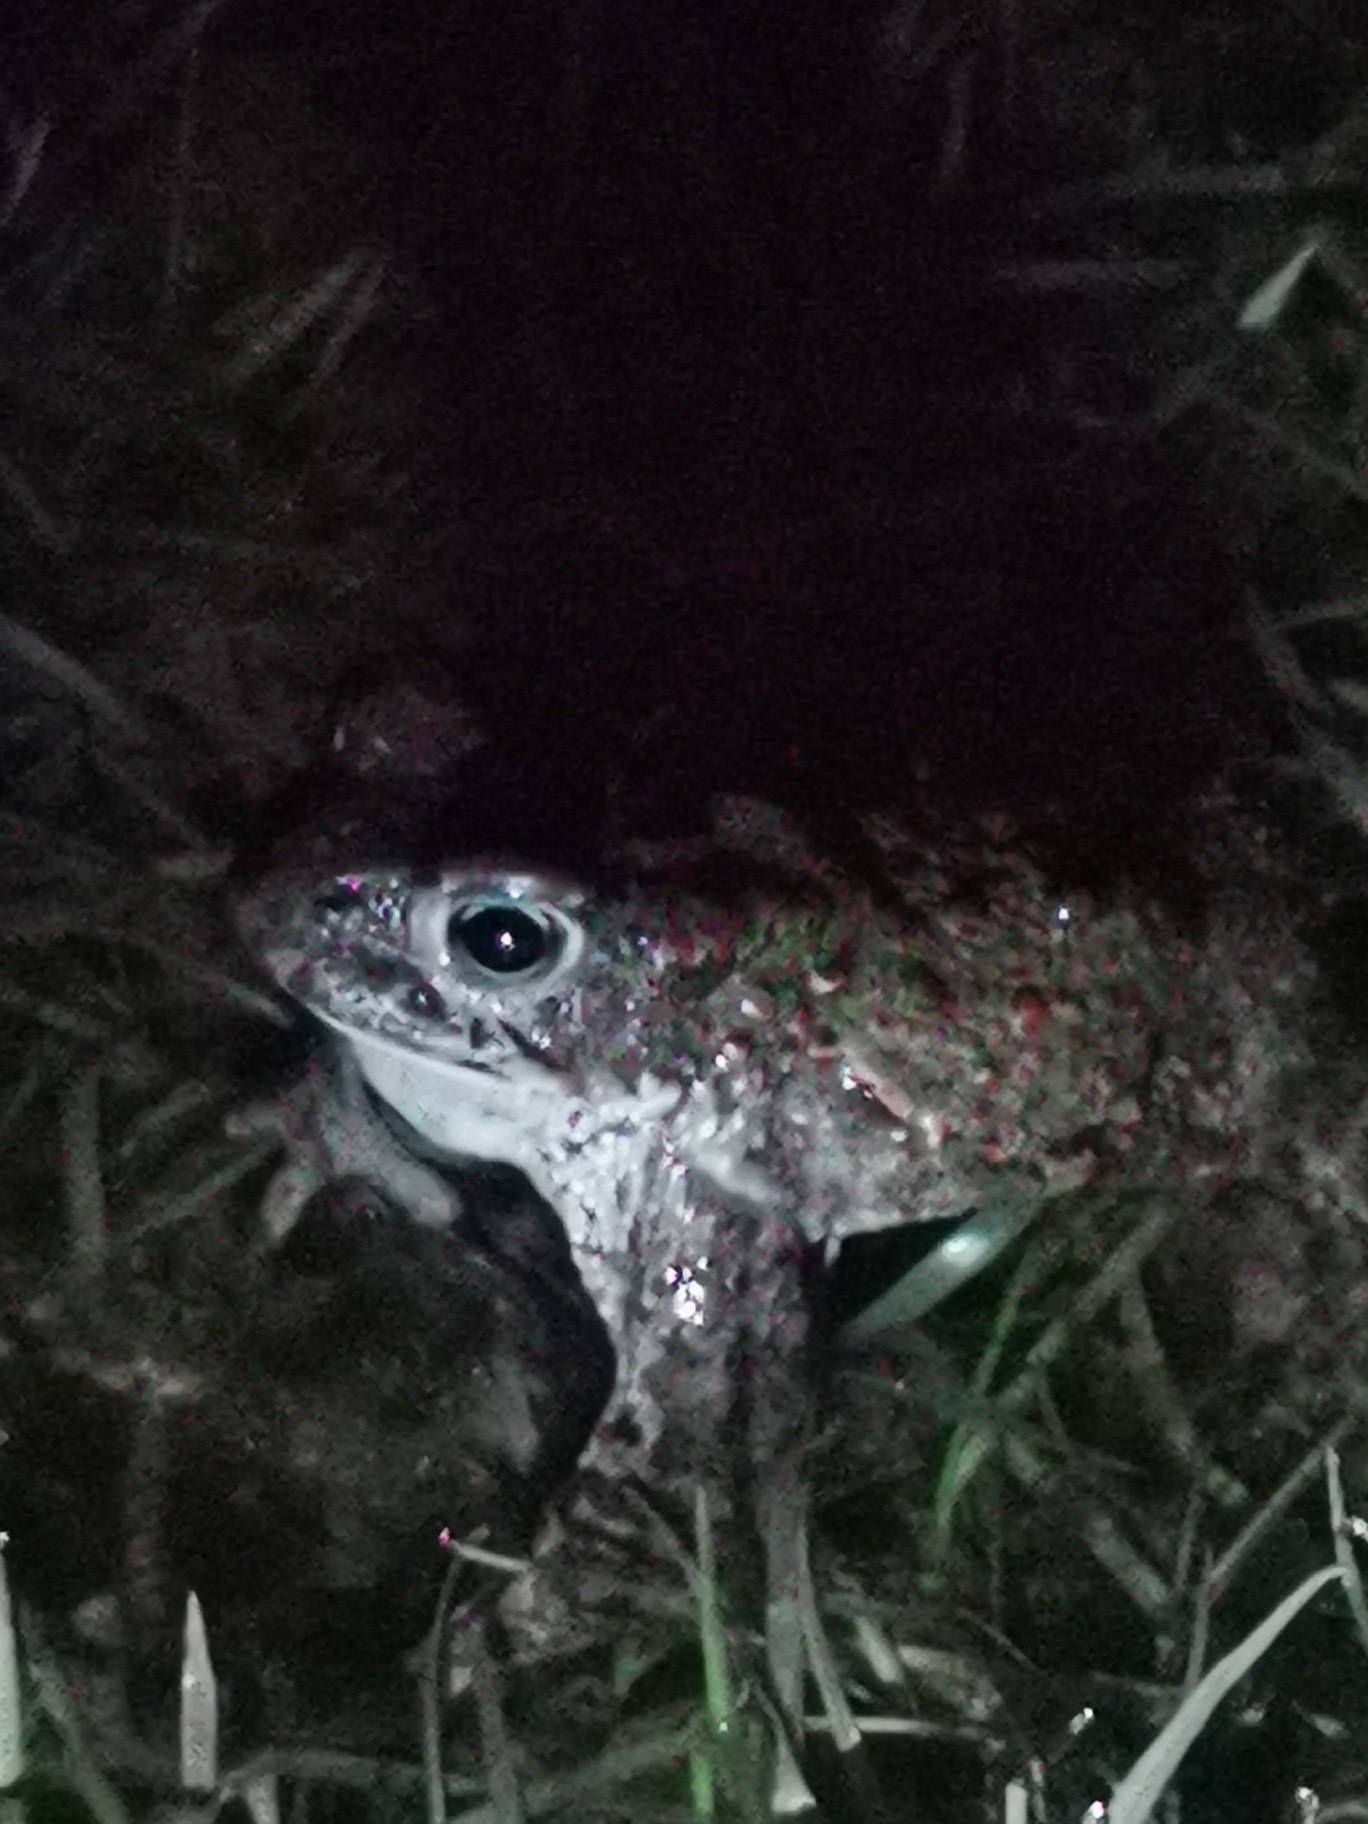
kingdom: Animalia
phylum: Chordata
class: Amphibia
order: Anura
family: Bufonidae
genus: Epidalea
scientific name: Epidalea calamita
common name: Strandtudse
